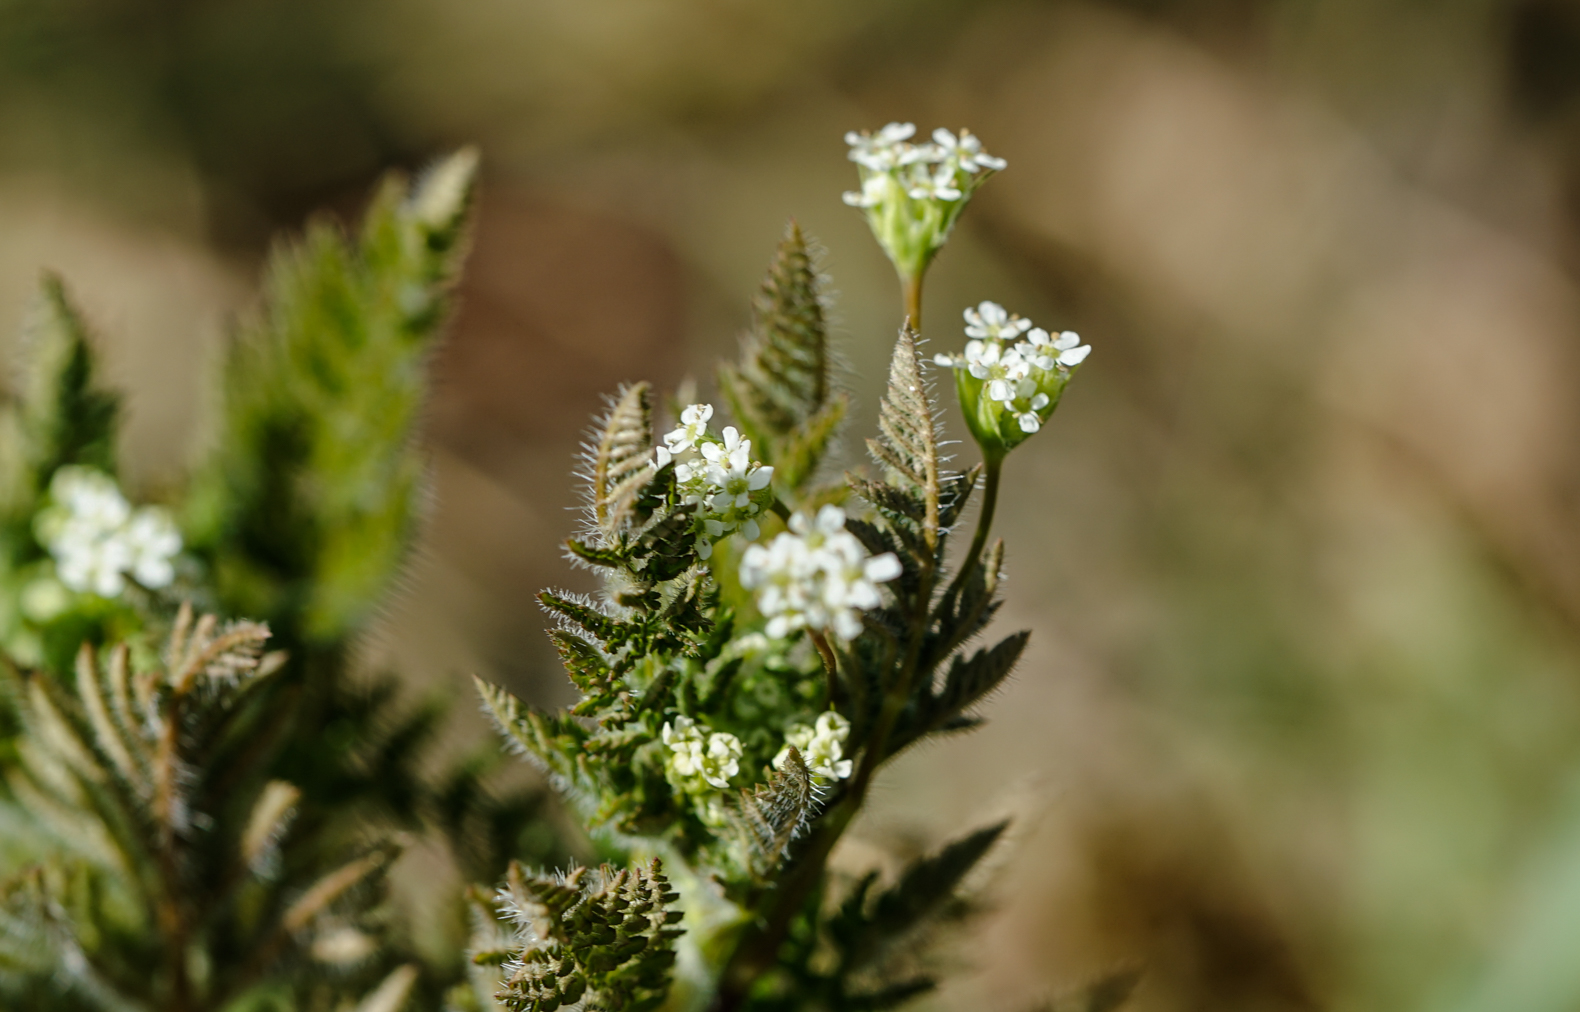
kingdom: Plantae
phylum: Tracheophyta
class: Magnoliopsida
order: Apiales
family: Apiaceae
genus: Torilis
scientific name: Torilis arvensis
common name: Spreading hedge-parsley
